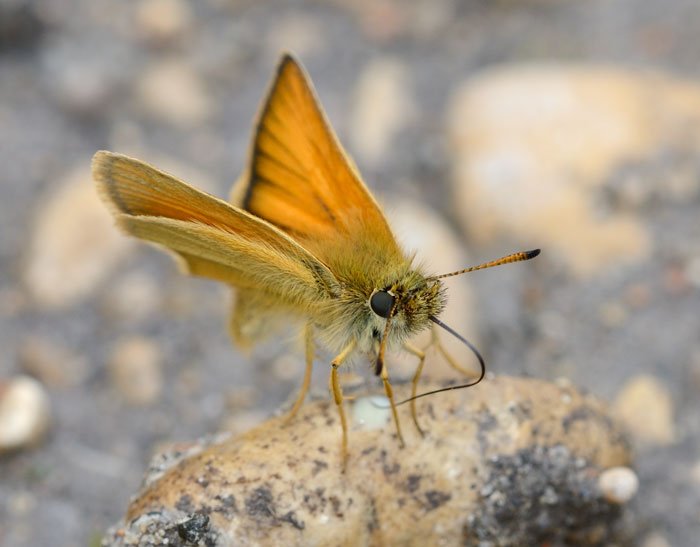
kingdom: Animalia
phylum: Arthropoda
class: Insecta
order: Lepidoptera
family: Hesperiidae
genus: Thymelicus
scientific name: Thymelicus lineola
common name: European Skipper
